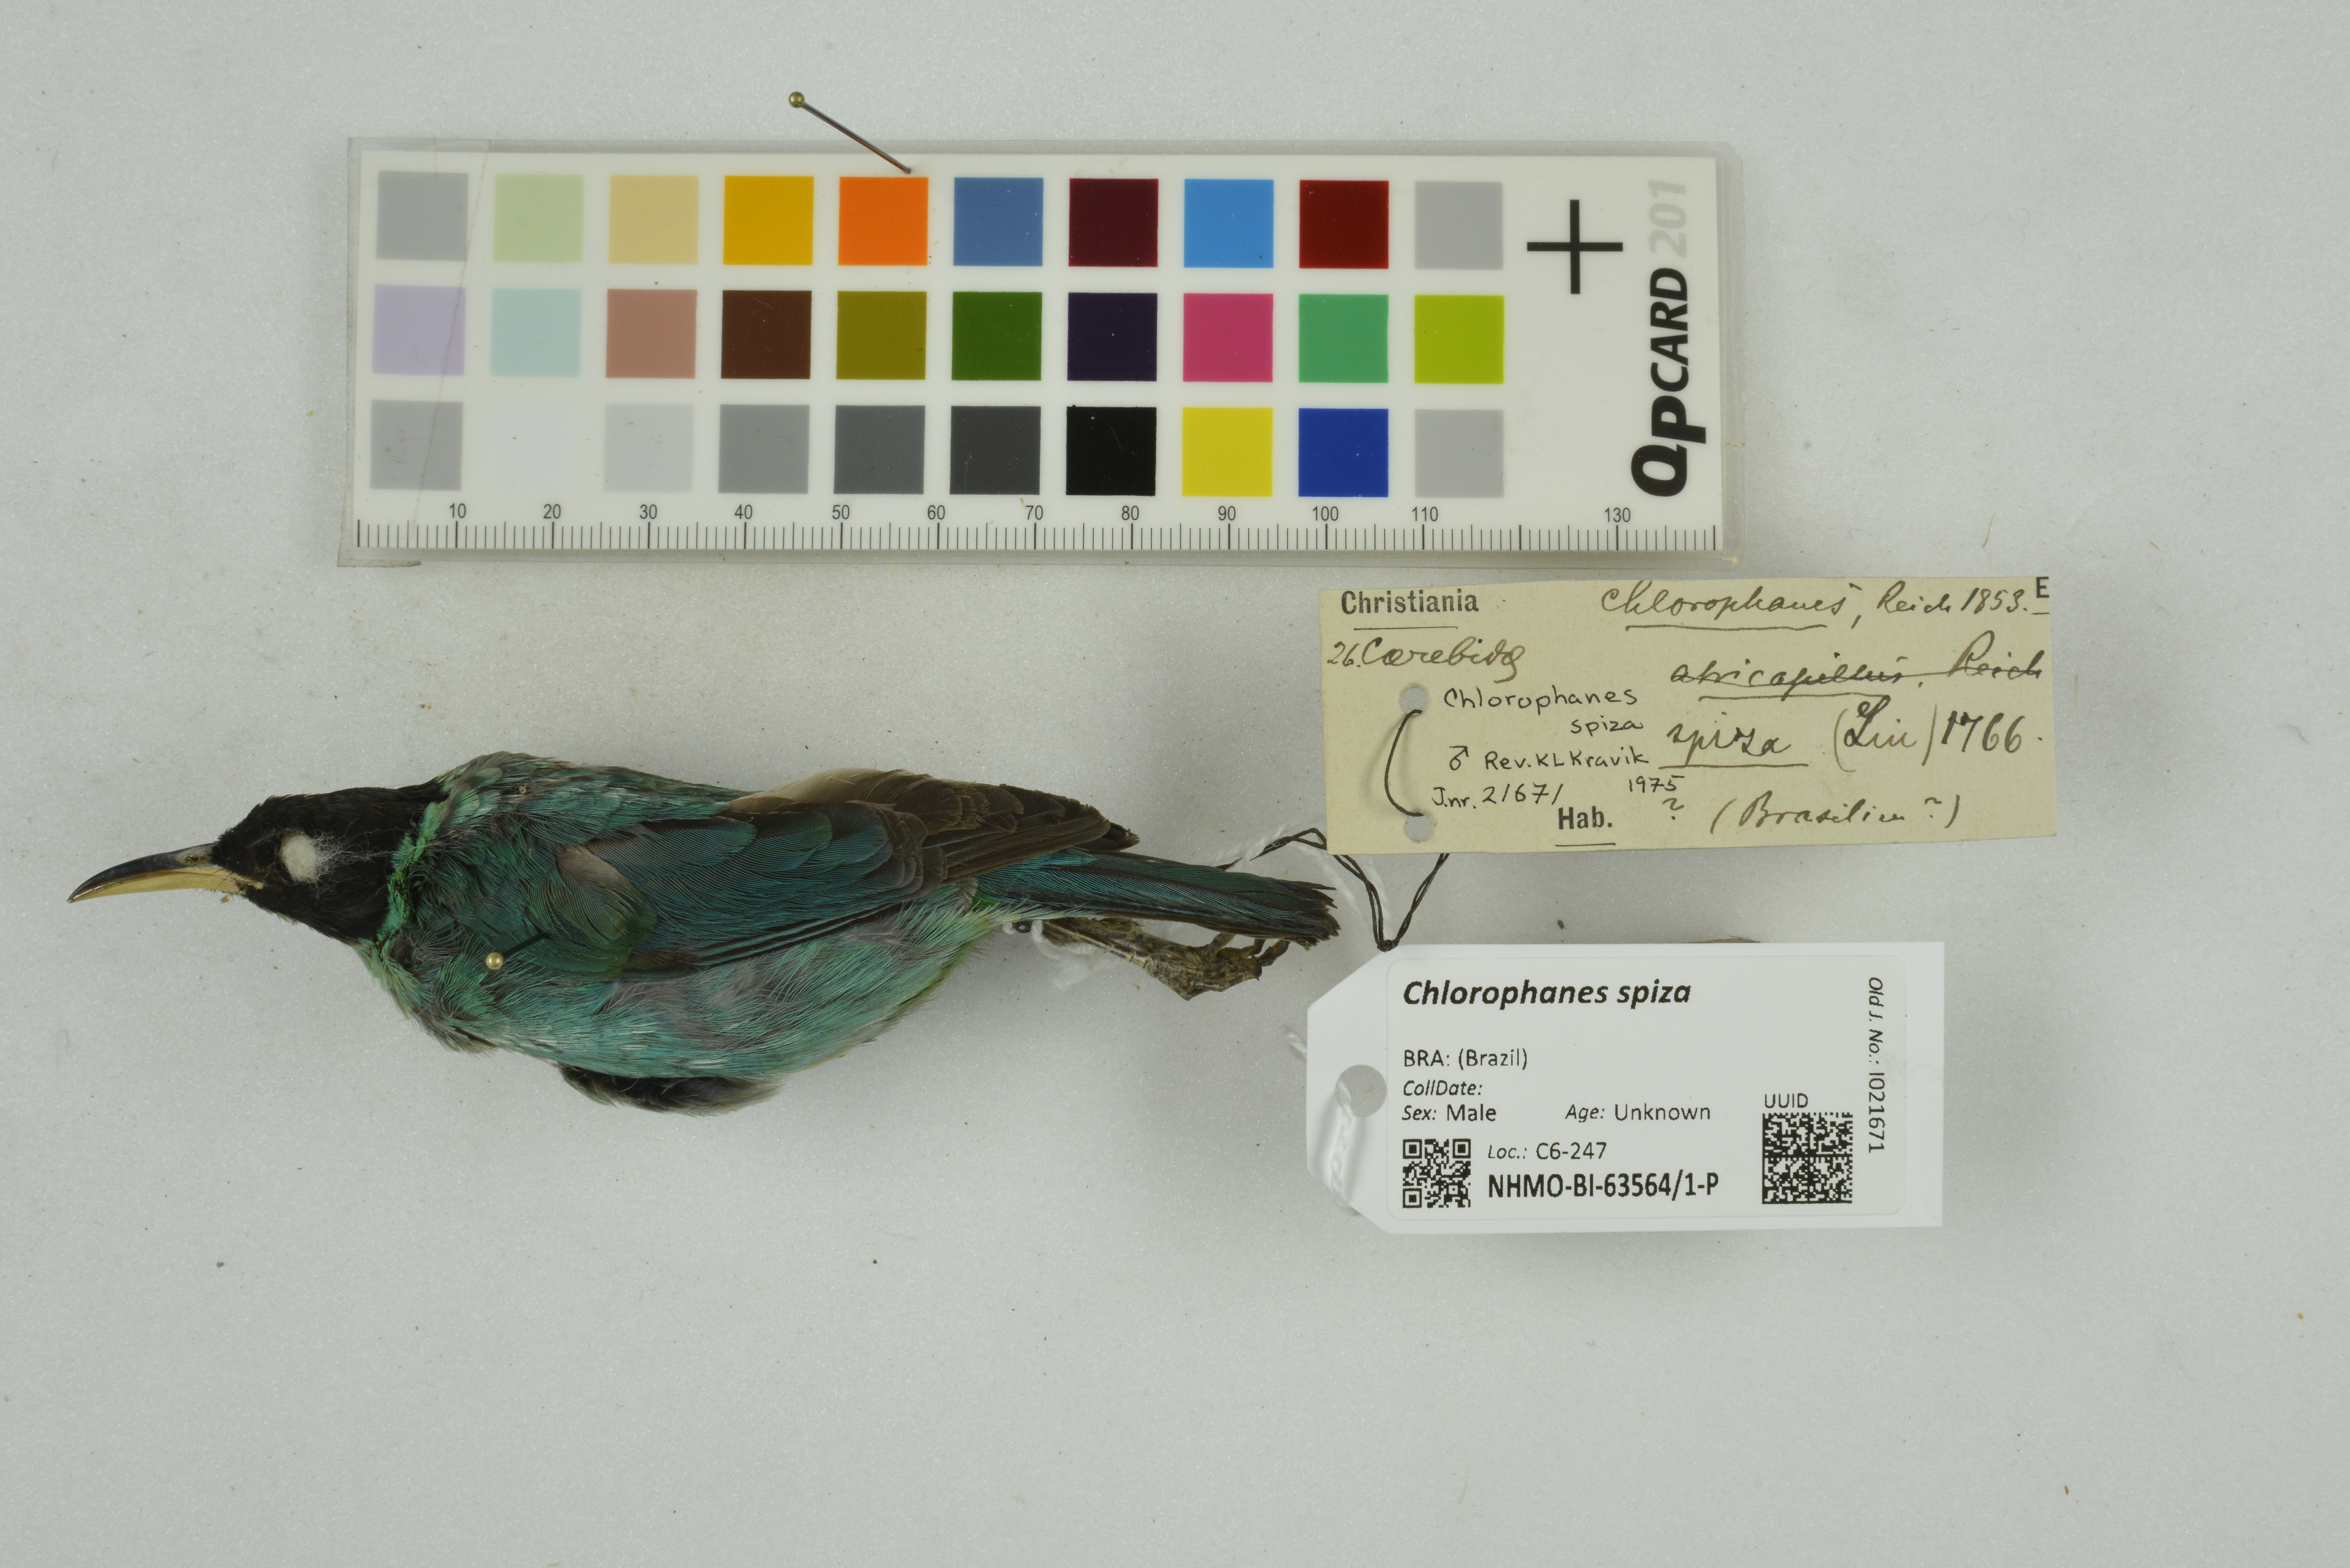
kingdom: Animalia
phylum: Chordata
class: Aves
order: Passeriformes
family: Thraupidae
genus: Chlorophanes
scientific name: Chlorophanes spiza
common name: Green honeycreeper
